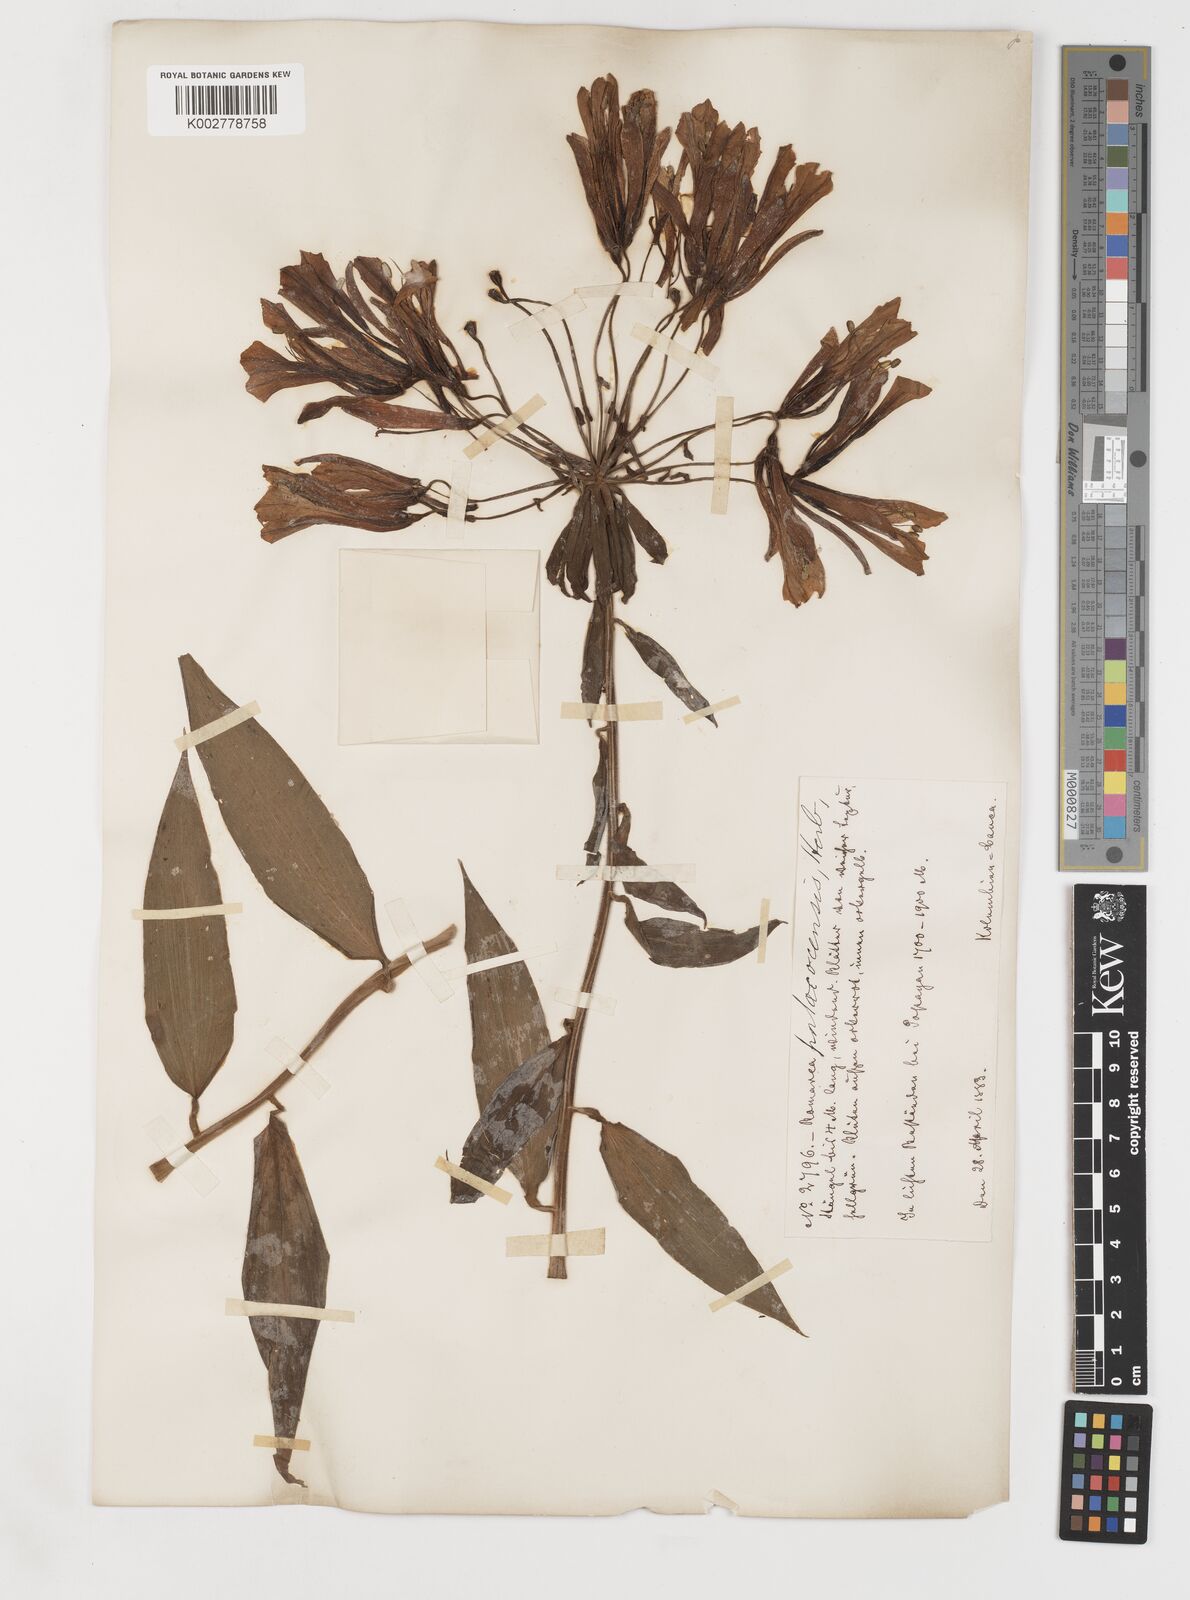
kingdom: Plantae
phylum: Tracheophyta
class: Liliopsida
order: Liliales
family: Alstroemeriaceae
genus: Bomarea
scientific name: Bomarea andreana
